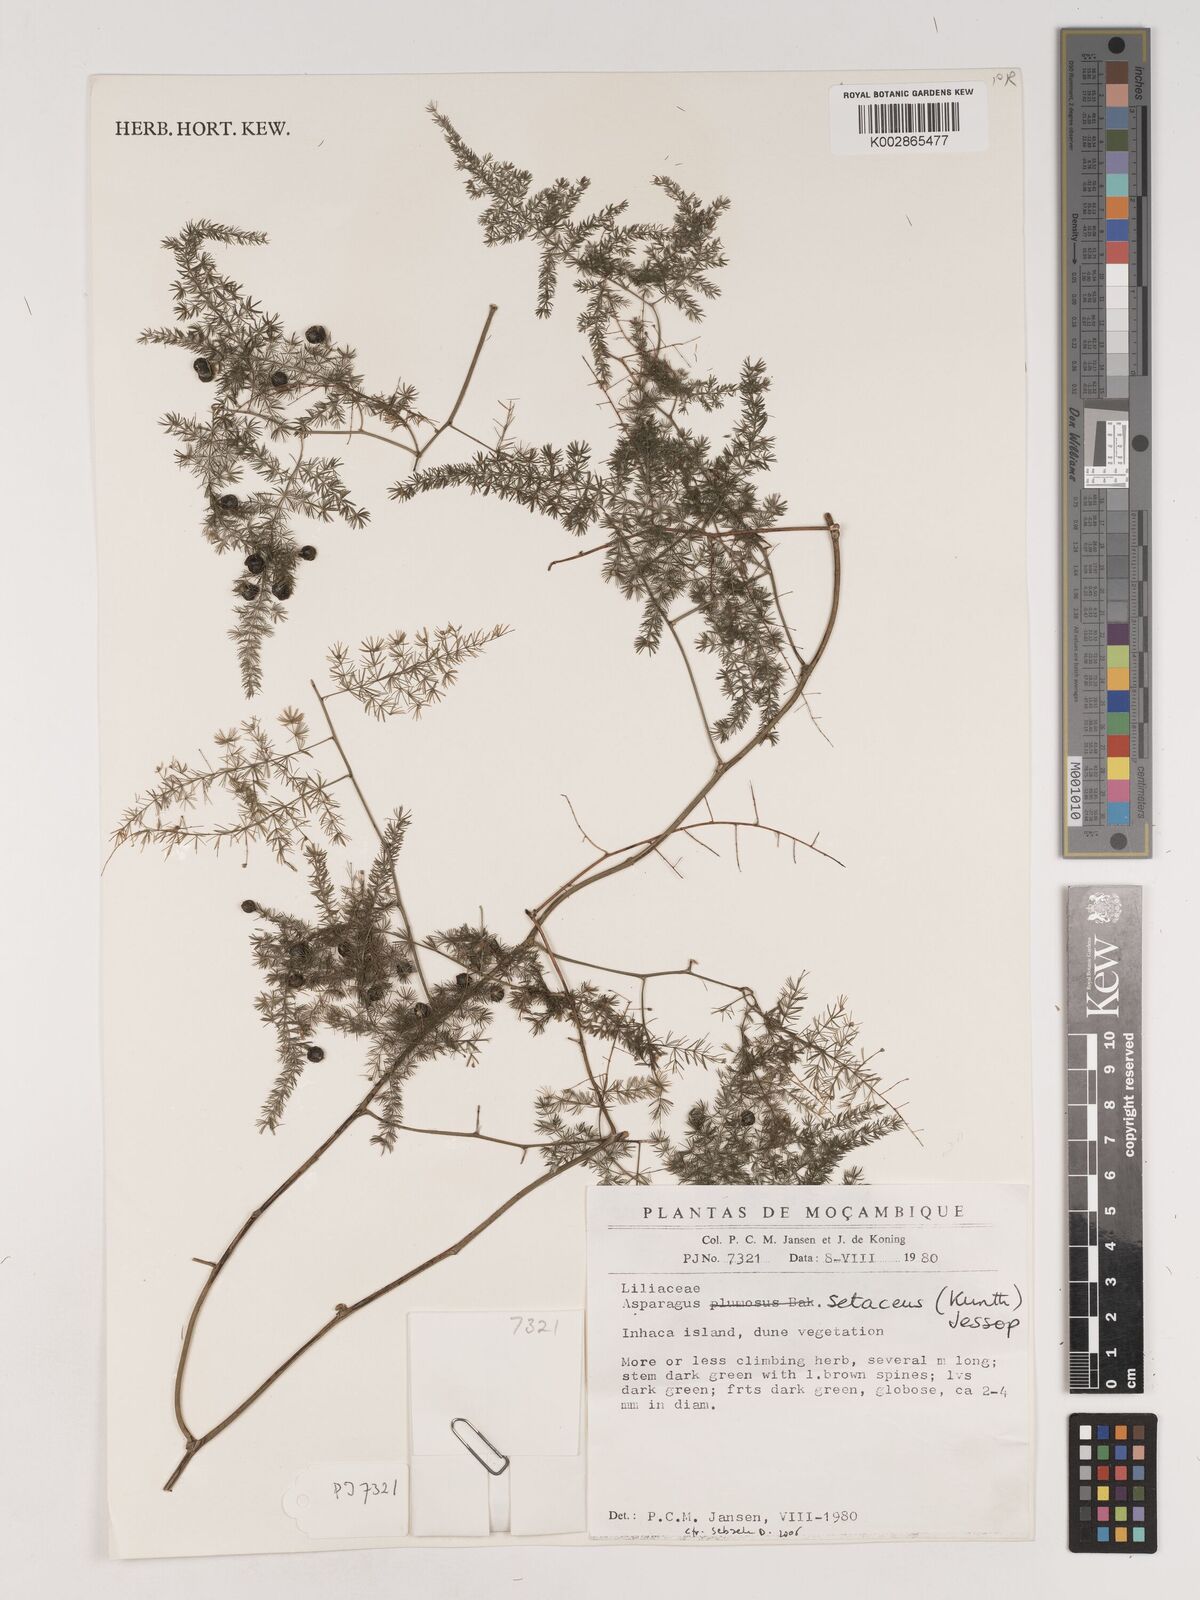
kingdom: Plantae
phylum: Tracheophyta
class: Liliopsida
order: Asparagales
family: Asparagaceae
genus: Asparagus
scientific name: Asparagus setaceus
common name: Common asparagus fern
